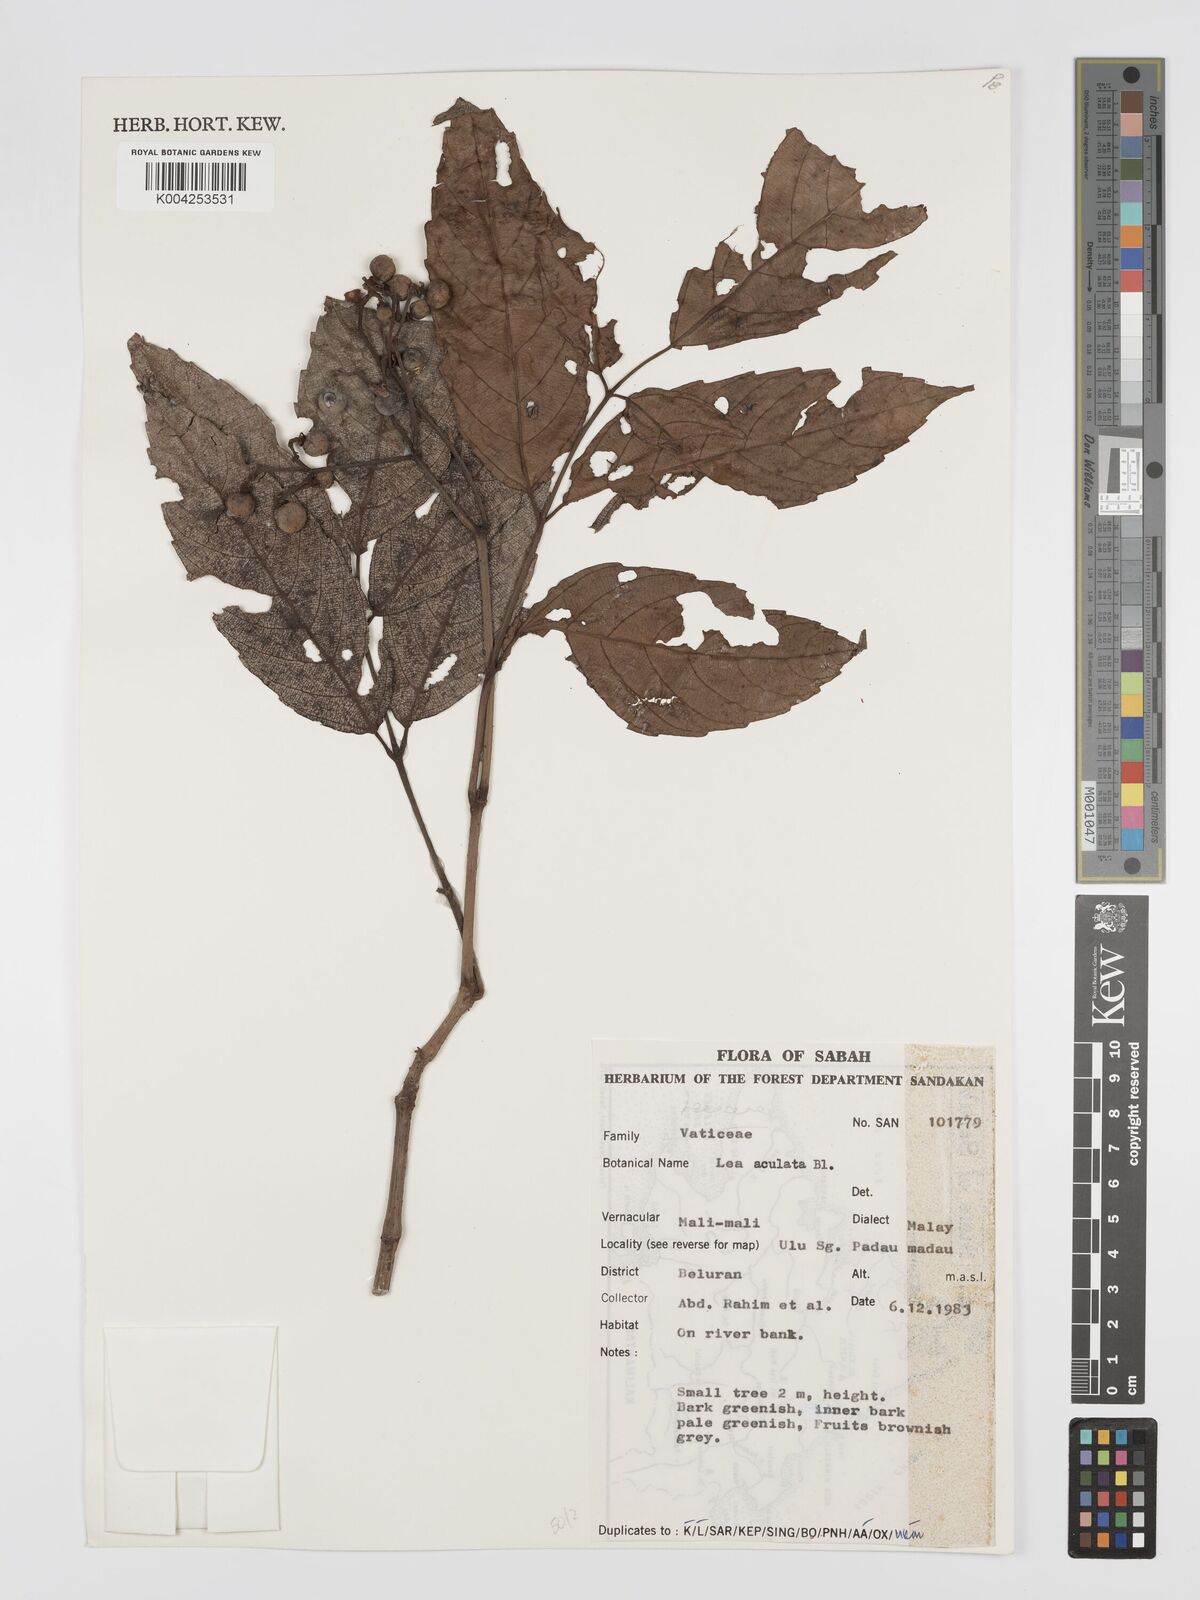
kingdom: Plantae
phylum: Tracheophyta
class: Magnoliopsida
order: Vitales
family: Vitaceae
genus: Leea
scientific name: Leea aculeata
